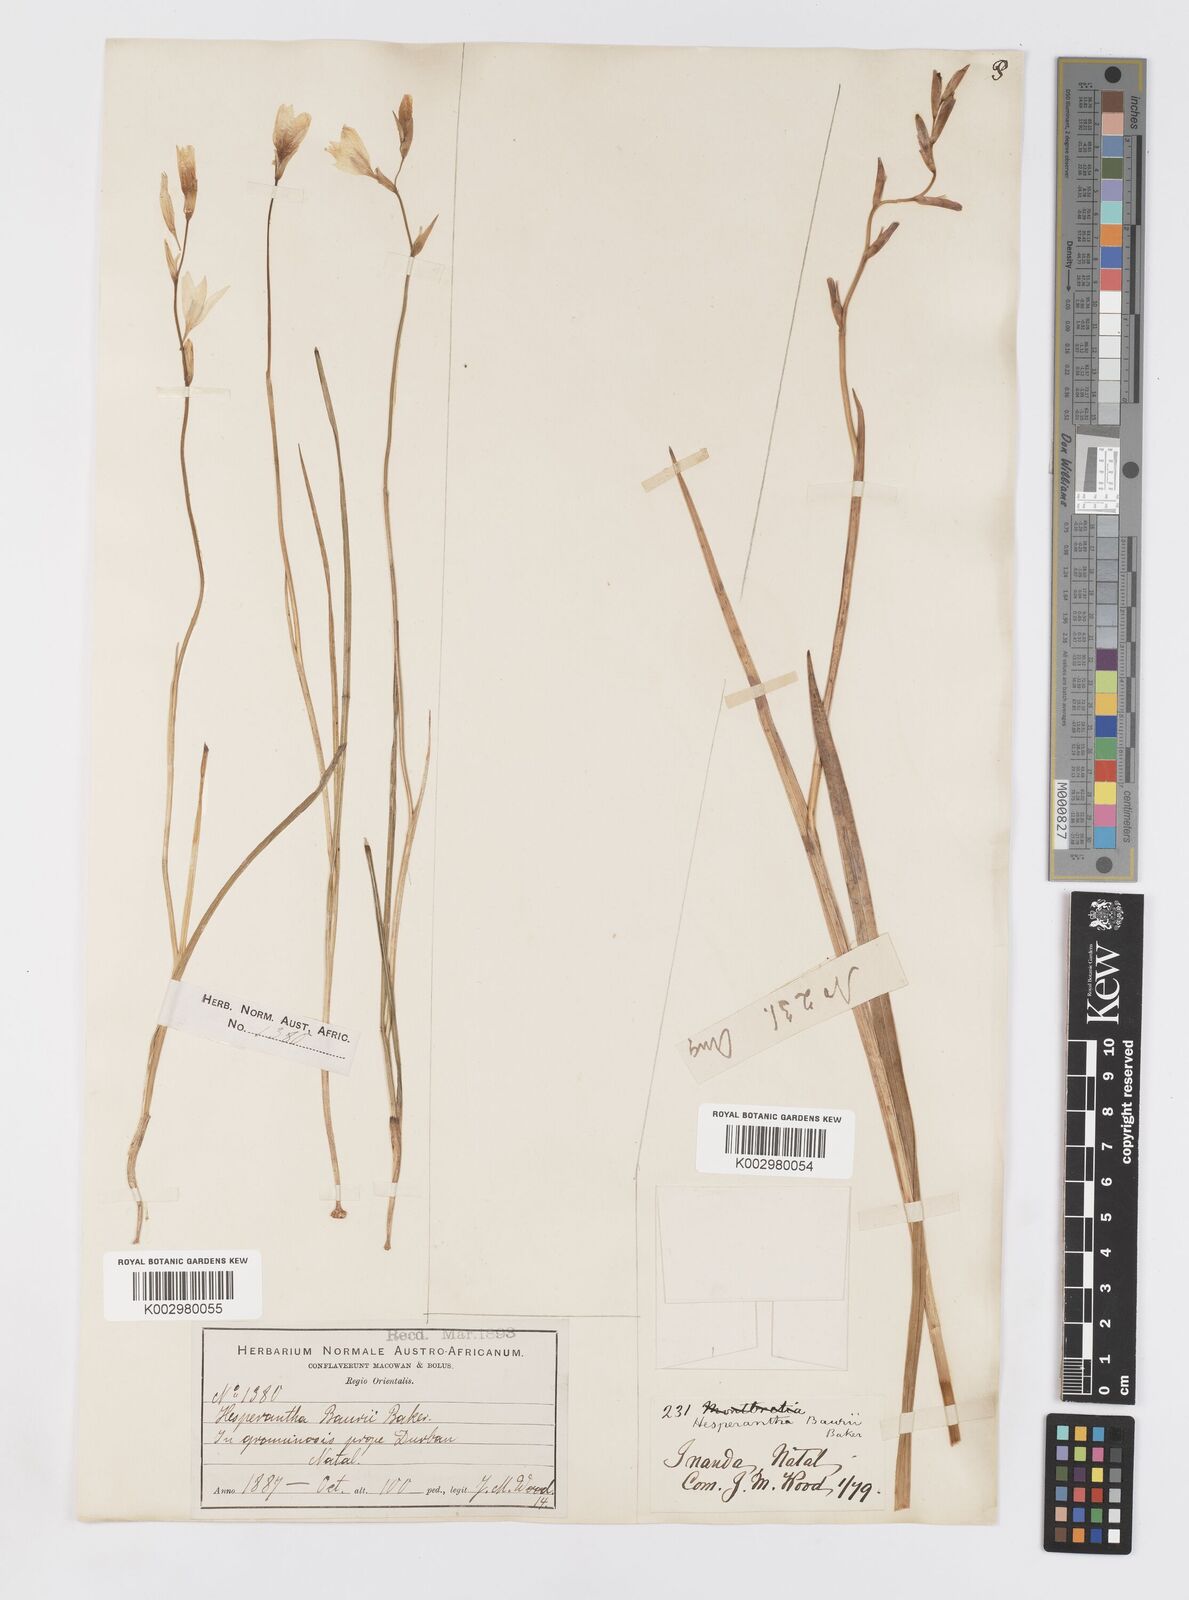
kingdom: Plantae
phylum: Tracheophyta
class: Liliopsida
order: Asparagales
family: Iridaceae
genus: Hesperantha
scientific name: Hesperantha baurii
